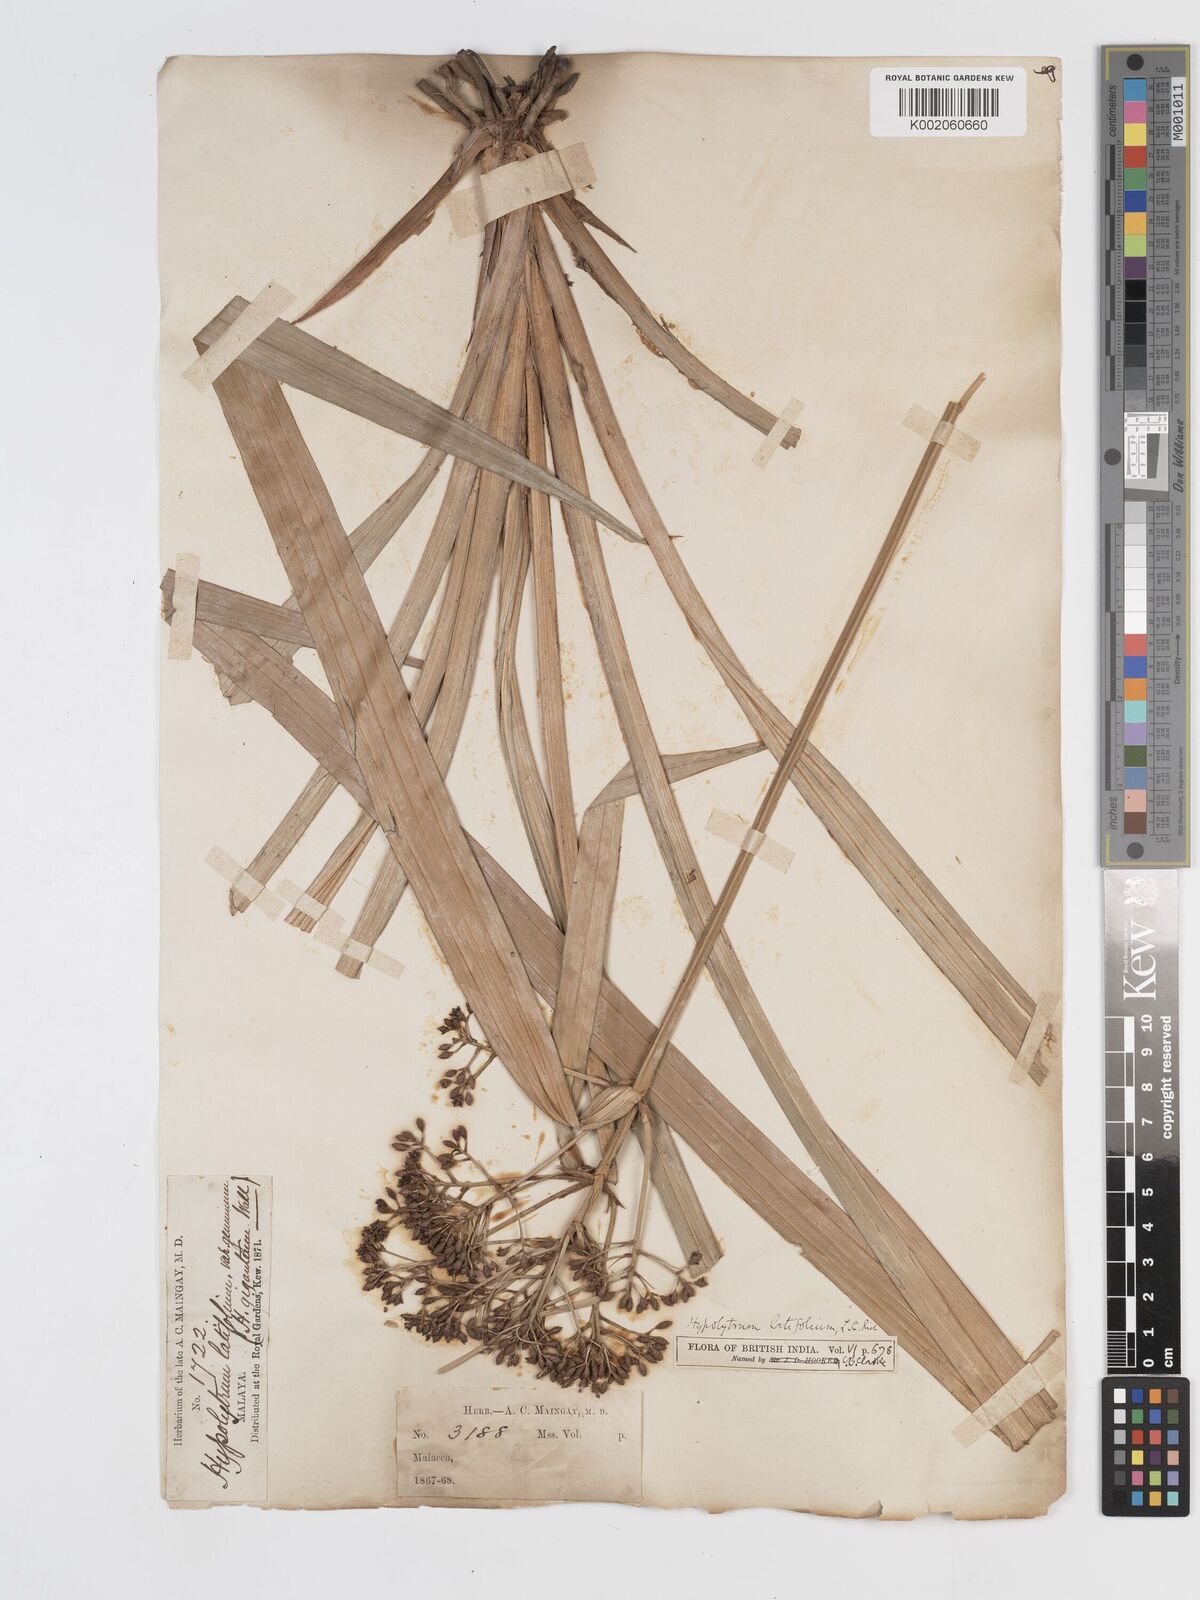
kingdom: Plantae
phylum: Tracheophyta
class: Liliopsida
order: Poales
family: Cyperaceae
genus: Hypolytrum
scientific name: Hypolytrum nemorum
